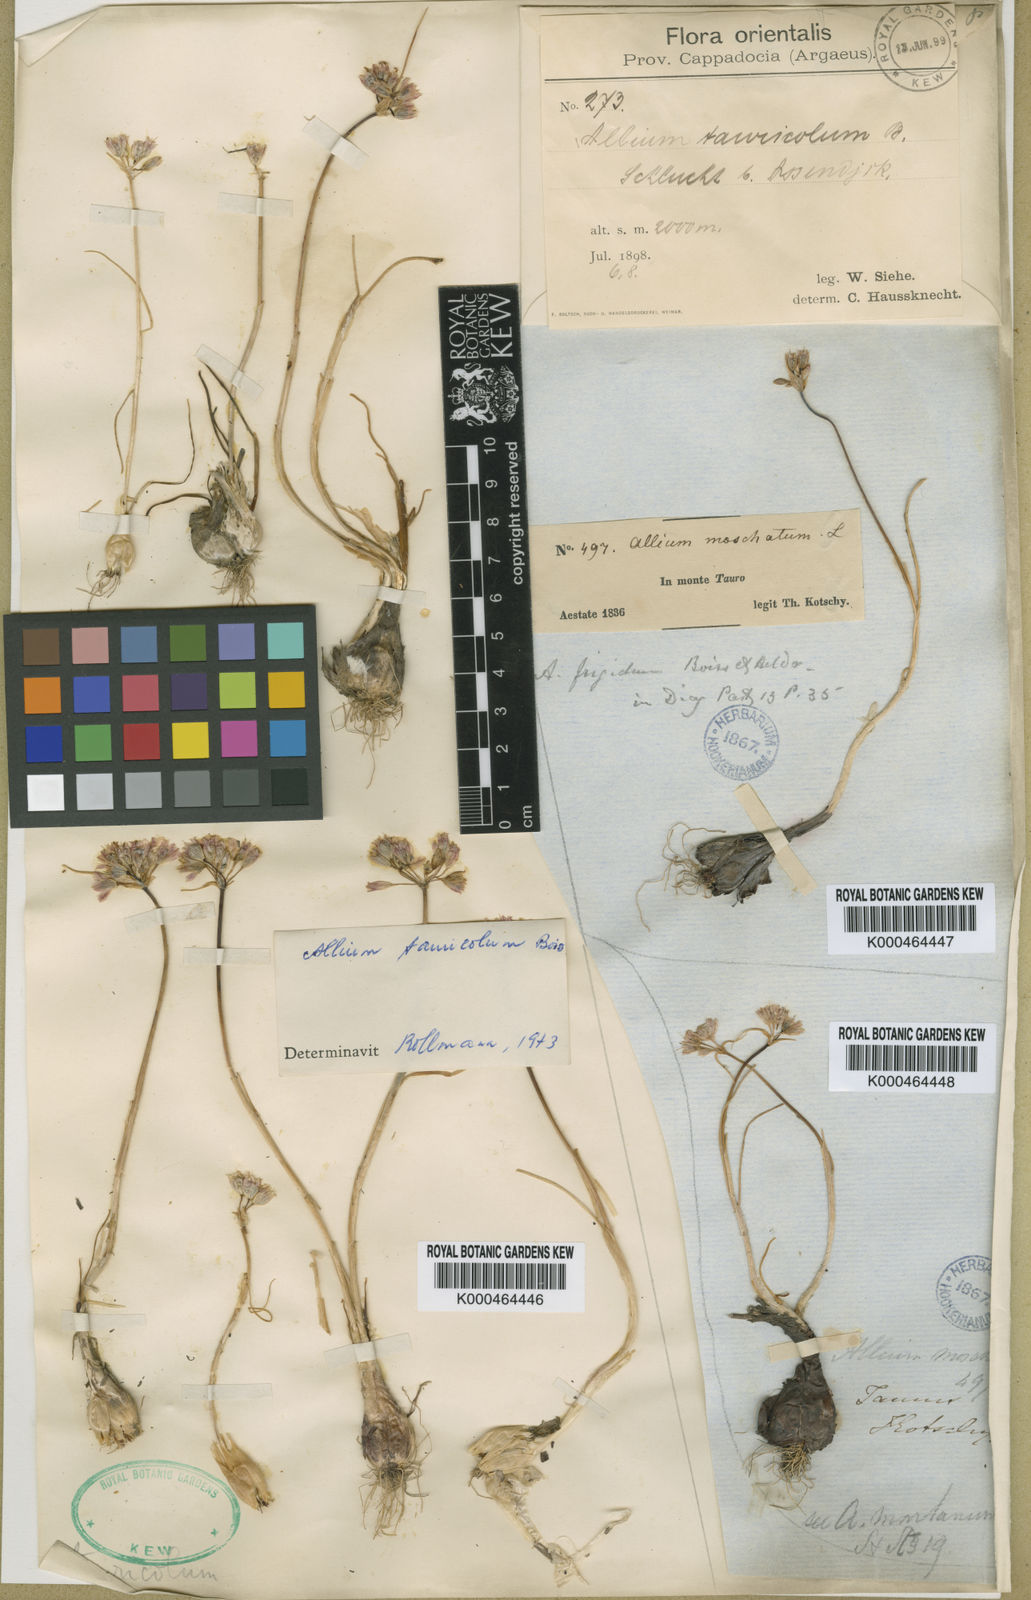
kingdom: Plantae
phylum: Tracheophyta
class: Liliopsida
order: Asparagales
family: Amaryllidaceae
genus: Allium
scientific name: Allium frigidum
